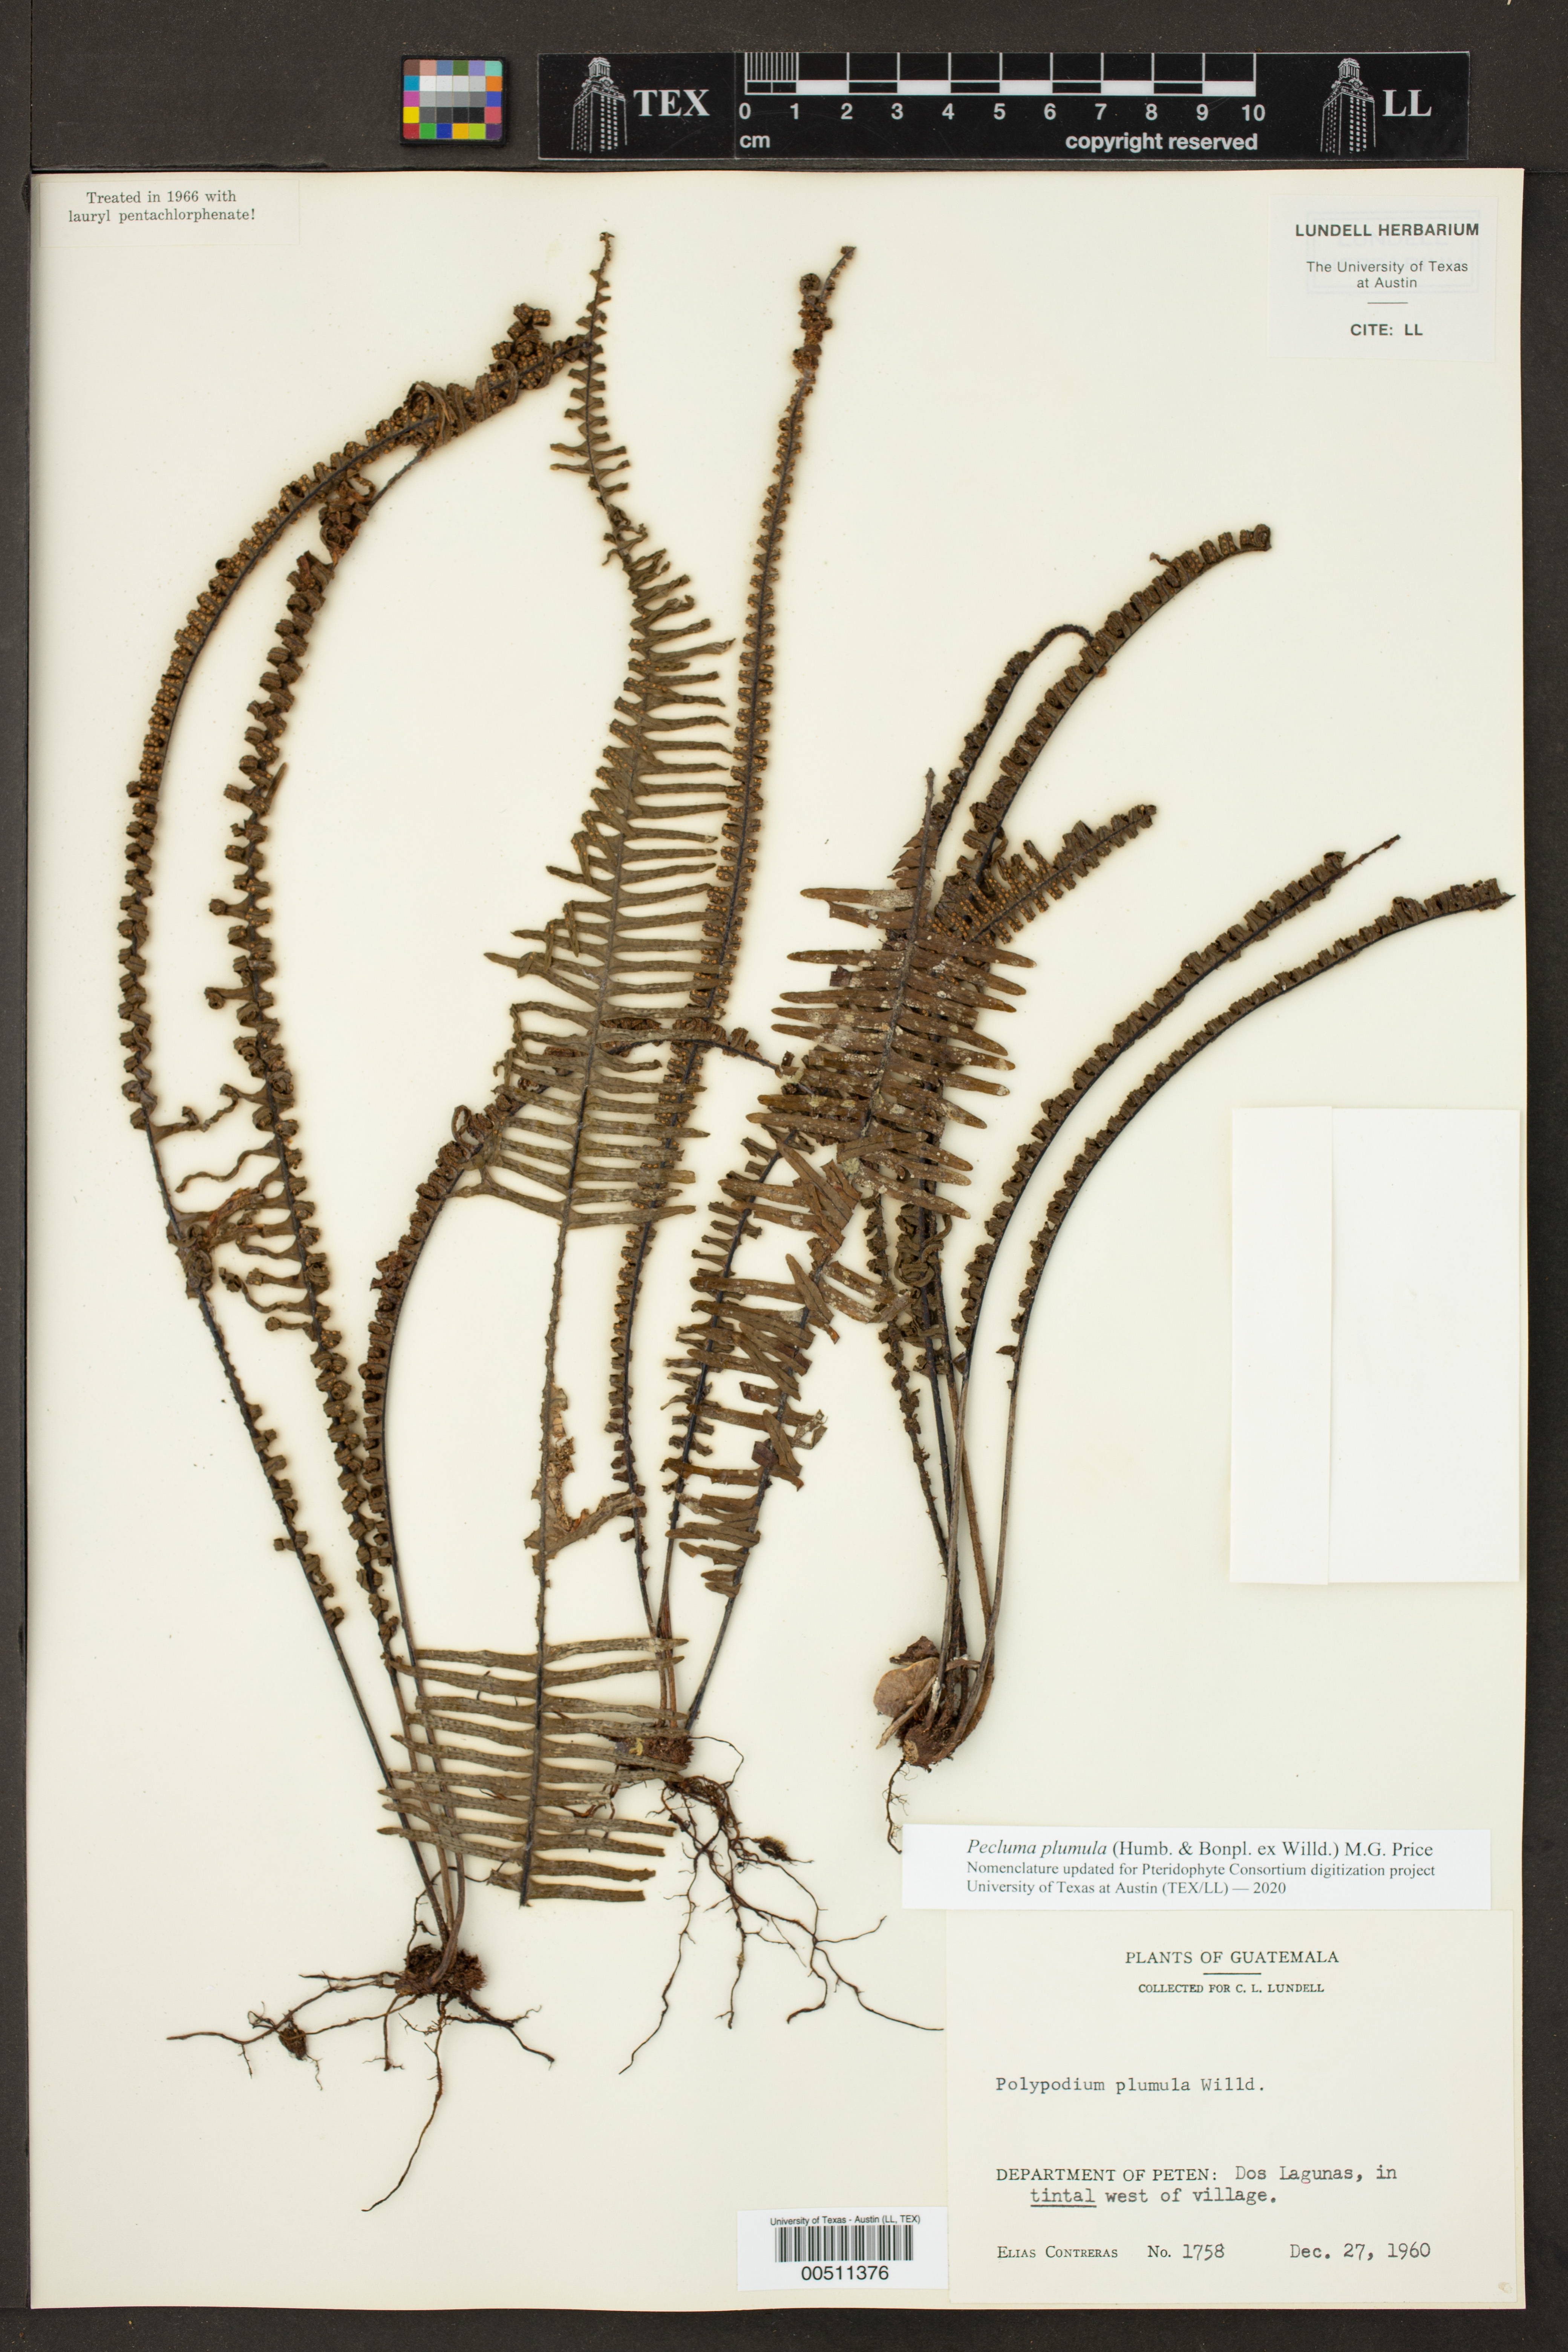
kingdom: Plantae
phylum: Tracheophyta
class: Polypodiopsida
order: Polypodiales
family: Polypodiaceae
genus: Pecluma
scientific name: Pecluma plumula
